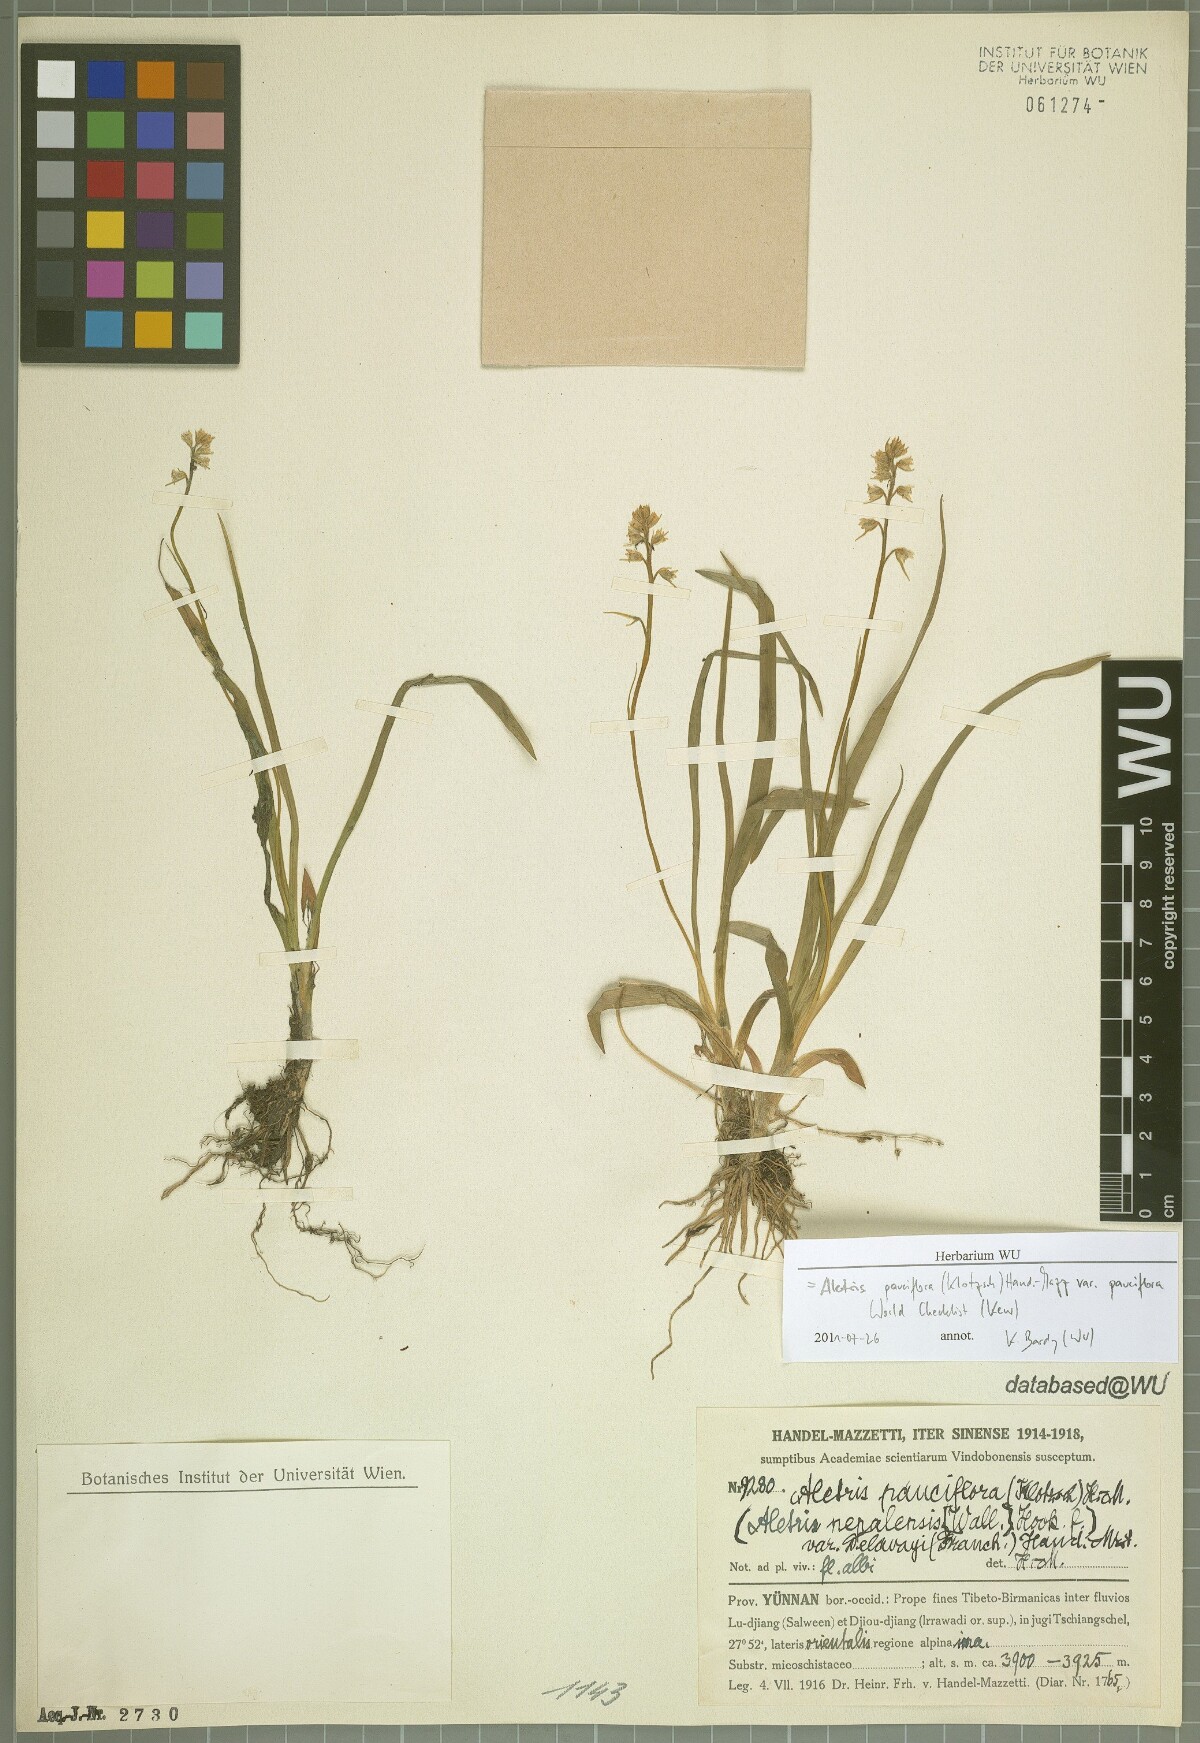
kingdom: Plantae
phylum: Tracheophyta
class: Liliopsida
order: Dioscoreales
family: Nartheciaceae
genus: Aletris
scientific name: Aletris pauciflora
